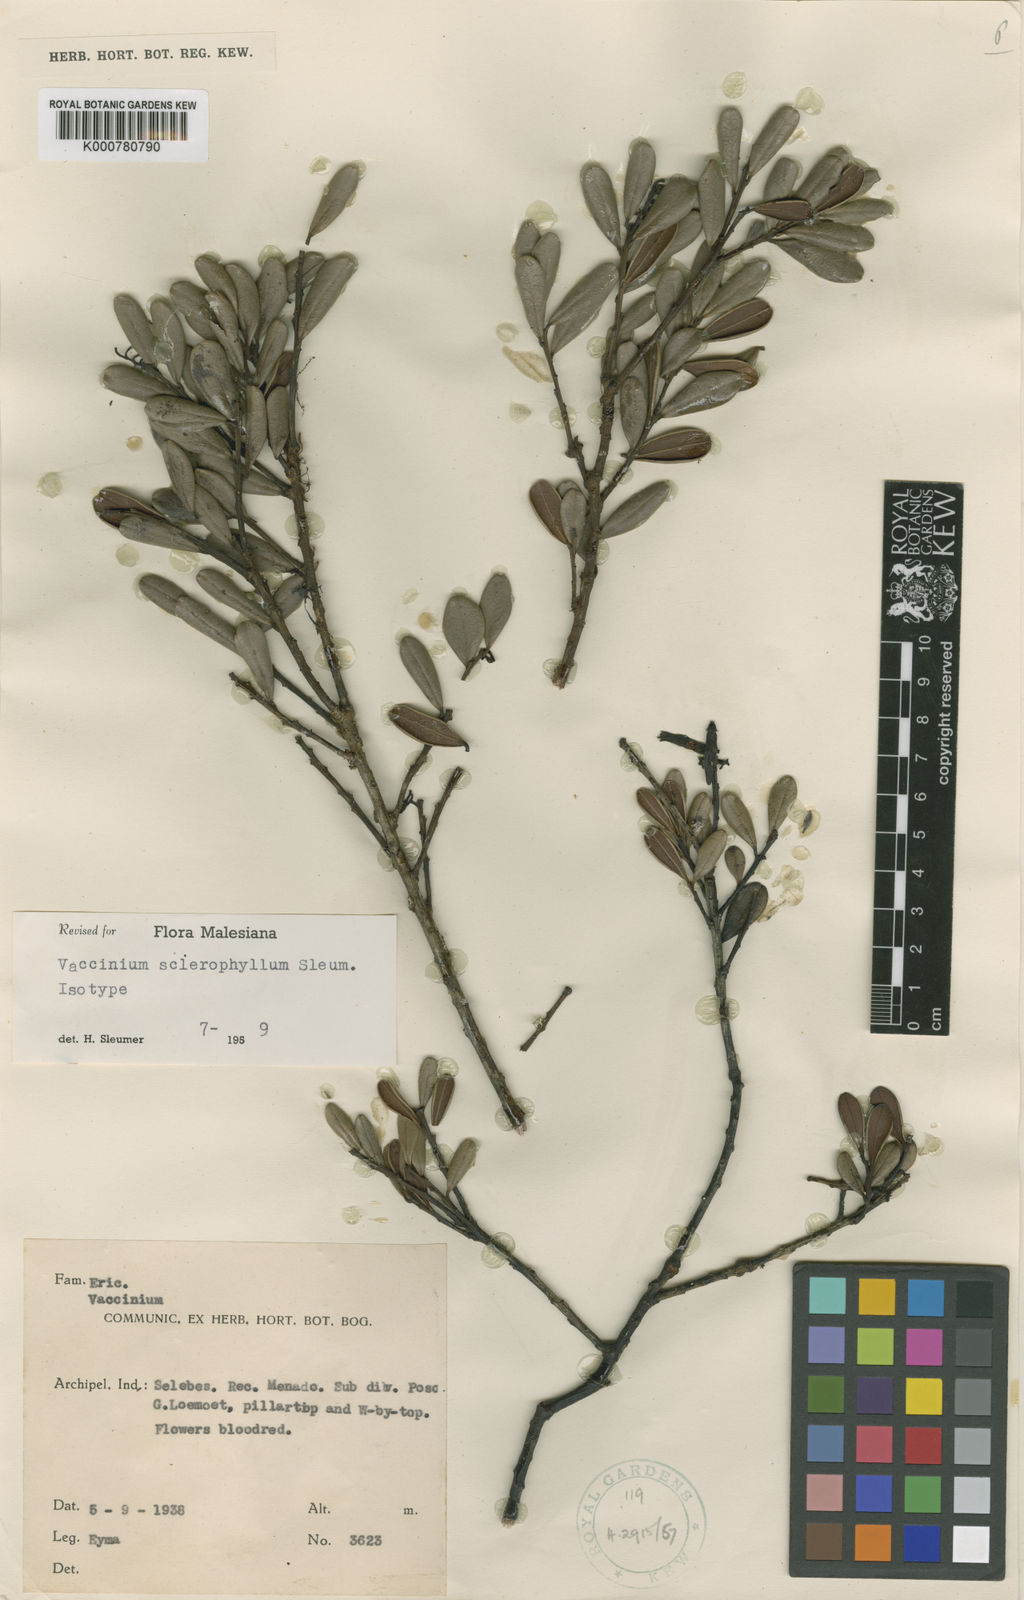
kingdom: Plantae
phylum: Tracheophyta
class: Magnoliopsida
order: Ericales
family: Ericaceae
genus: Vaccinium
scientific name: Vaccinium sclerophyllum
